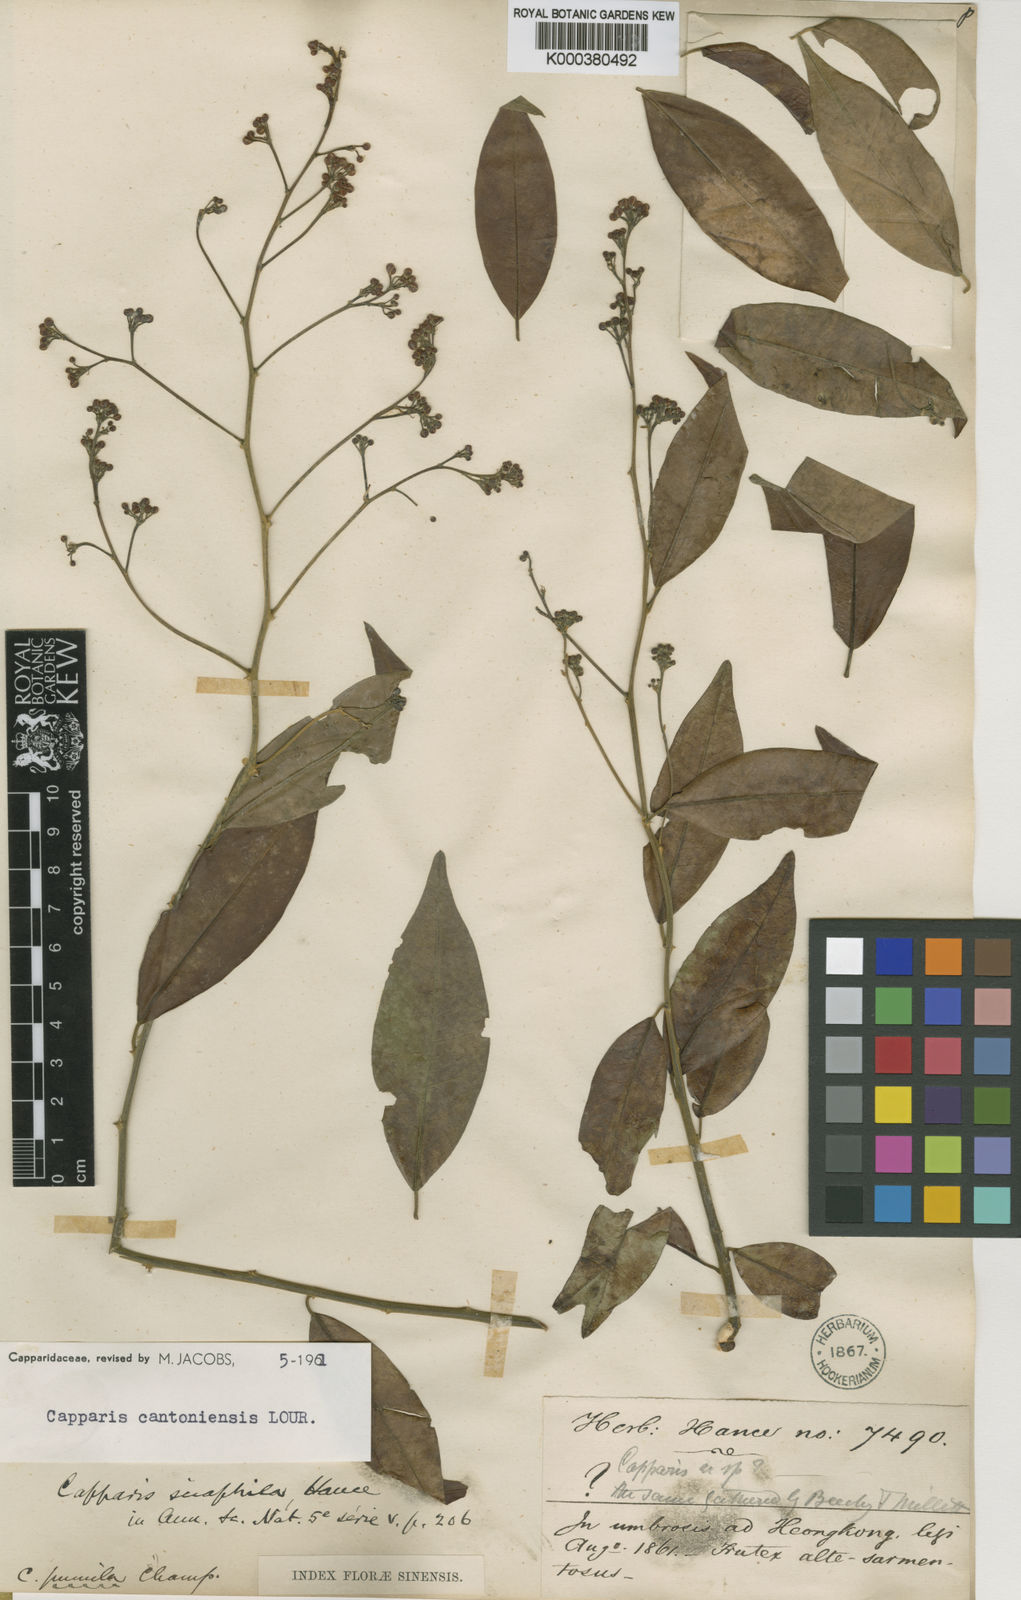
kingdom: Plantae
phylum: Tracheophyta
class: Magnoliopsida
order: Brassicales
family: Capparaceae
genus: Capparis
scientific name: Capparis cantoniensis
